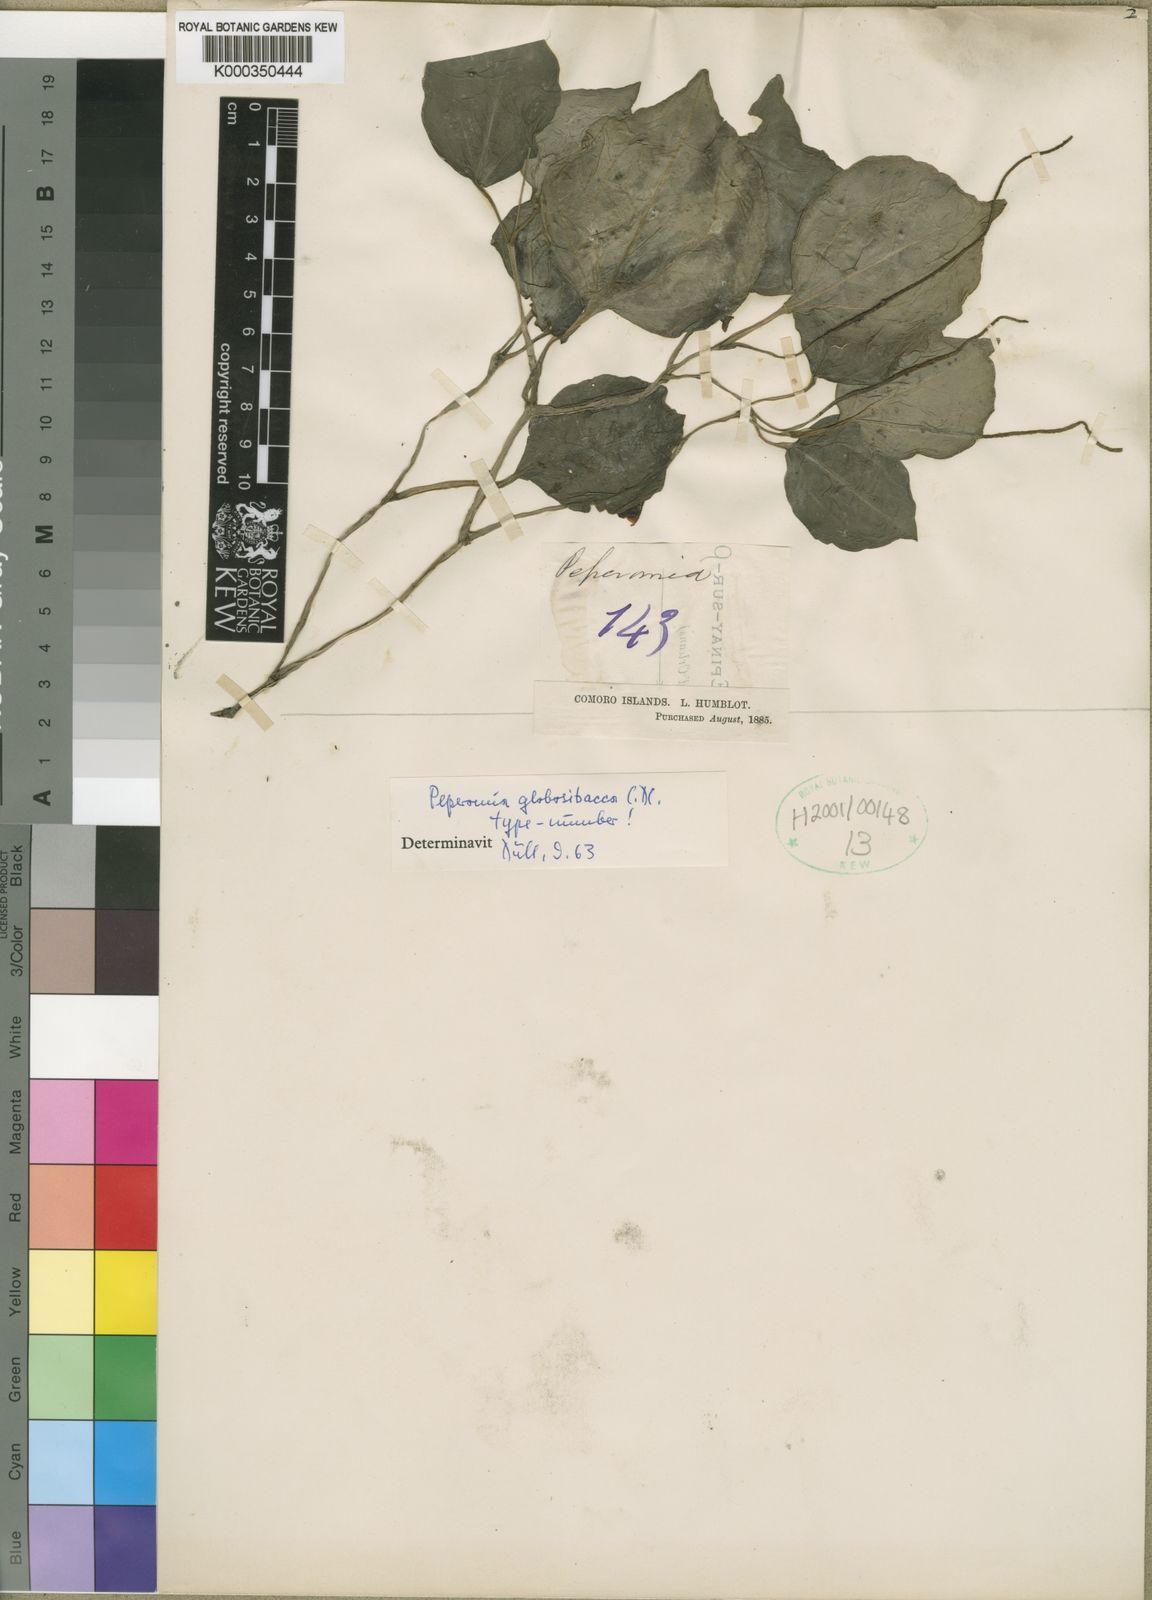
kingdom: Plantae
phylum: Tracheophyta
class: Magnoliopsida
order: Piperales
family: Piperaceae
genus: Peperomia
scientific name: Peperomia globosibacca
